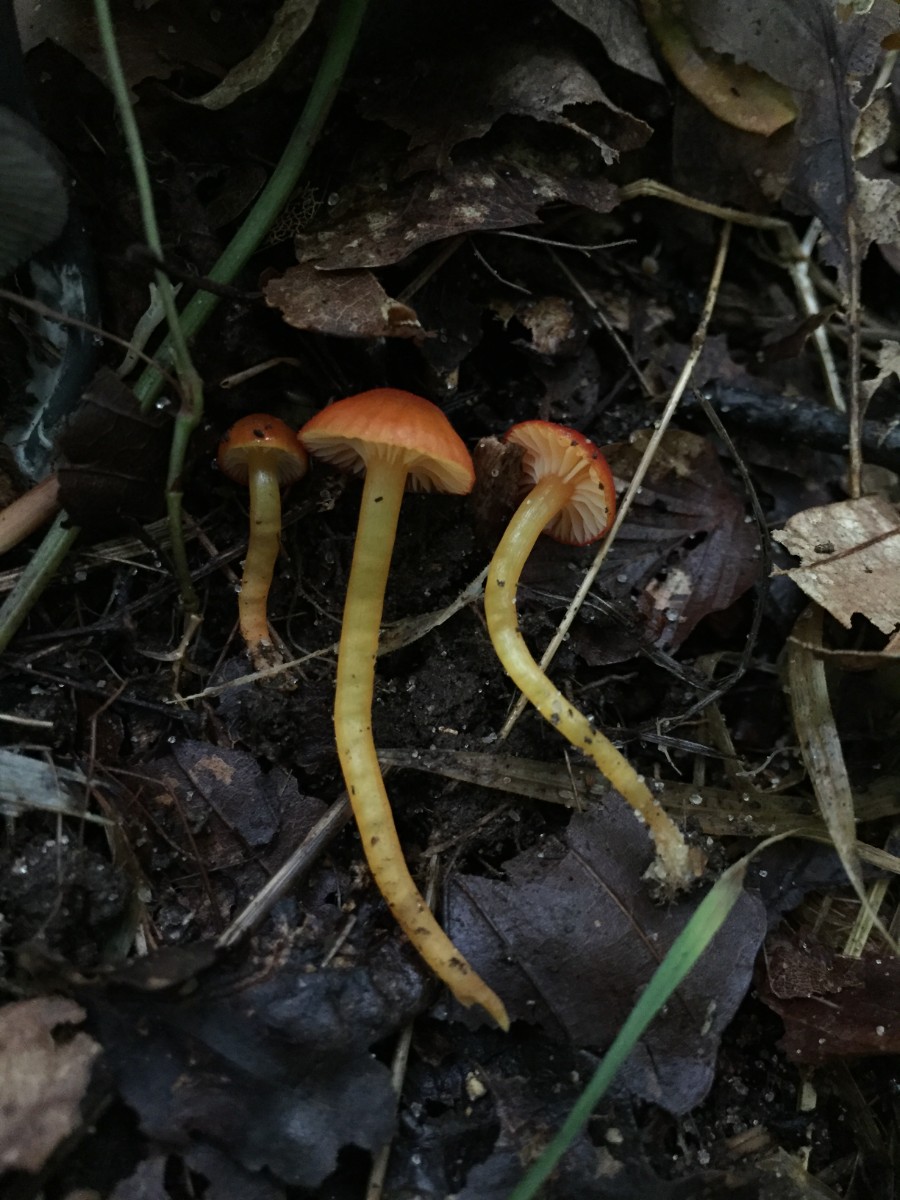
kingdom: Fungi
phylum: Basidiomycota
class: Agaricomycetes
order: Agaricales
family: Hygrophoraceae
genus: Hygrocybe
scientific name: Hygrocybe insipida
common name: liden vokshat
